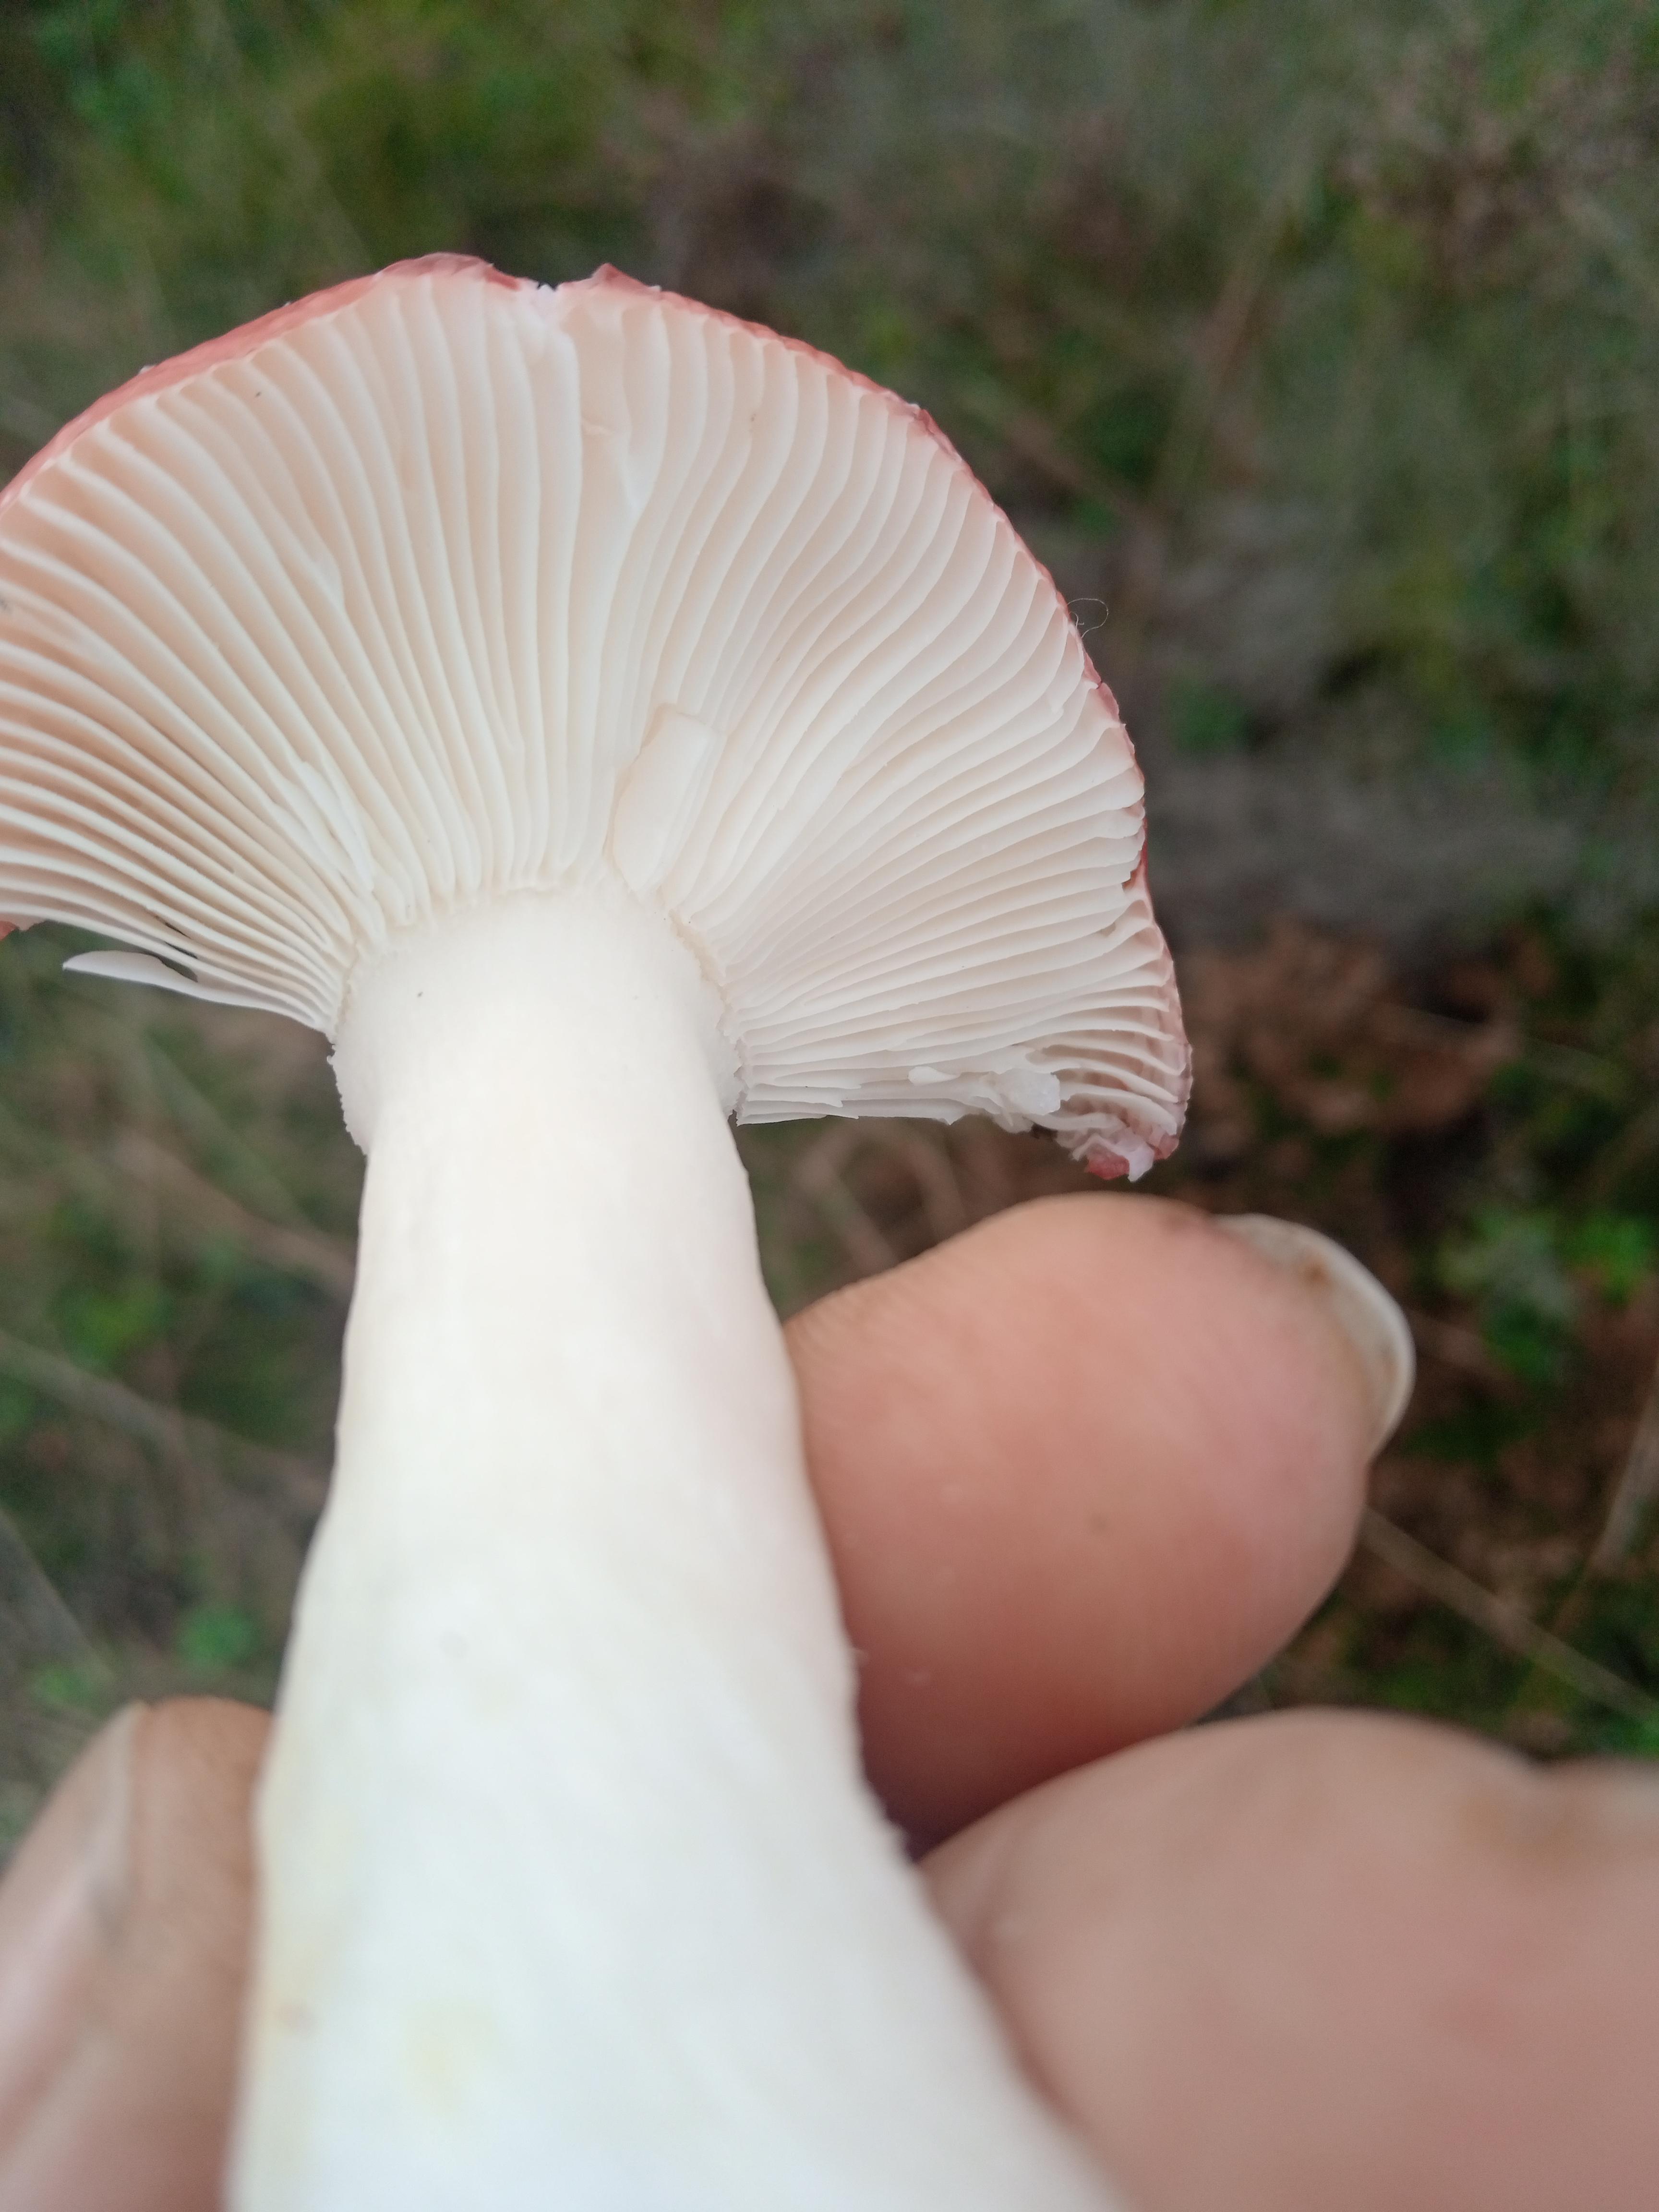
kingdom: Fungi
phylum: Basidiomycota
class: Agaricomycetes
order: Russulales
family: Russulaceae
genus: Russula
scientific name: Russula emetica
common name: stor gift-skørhat
